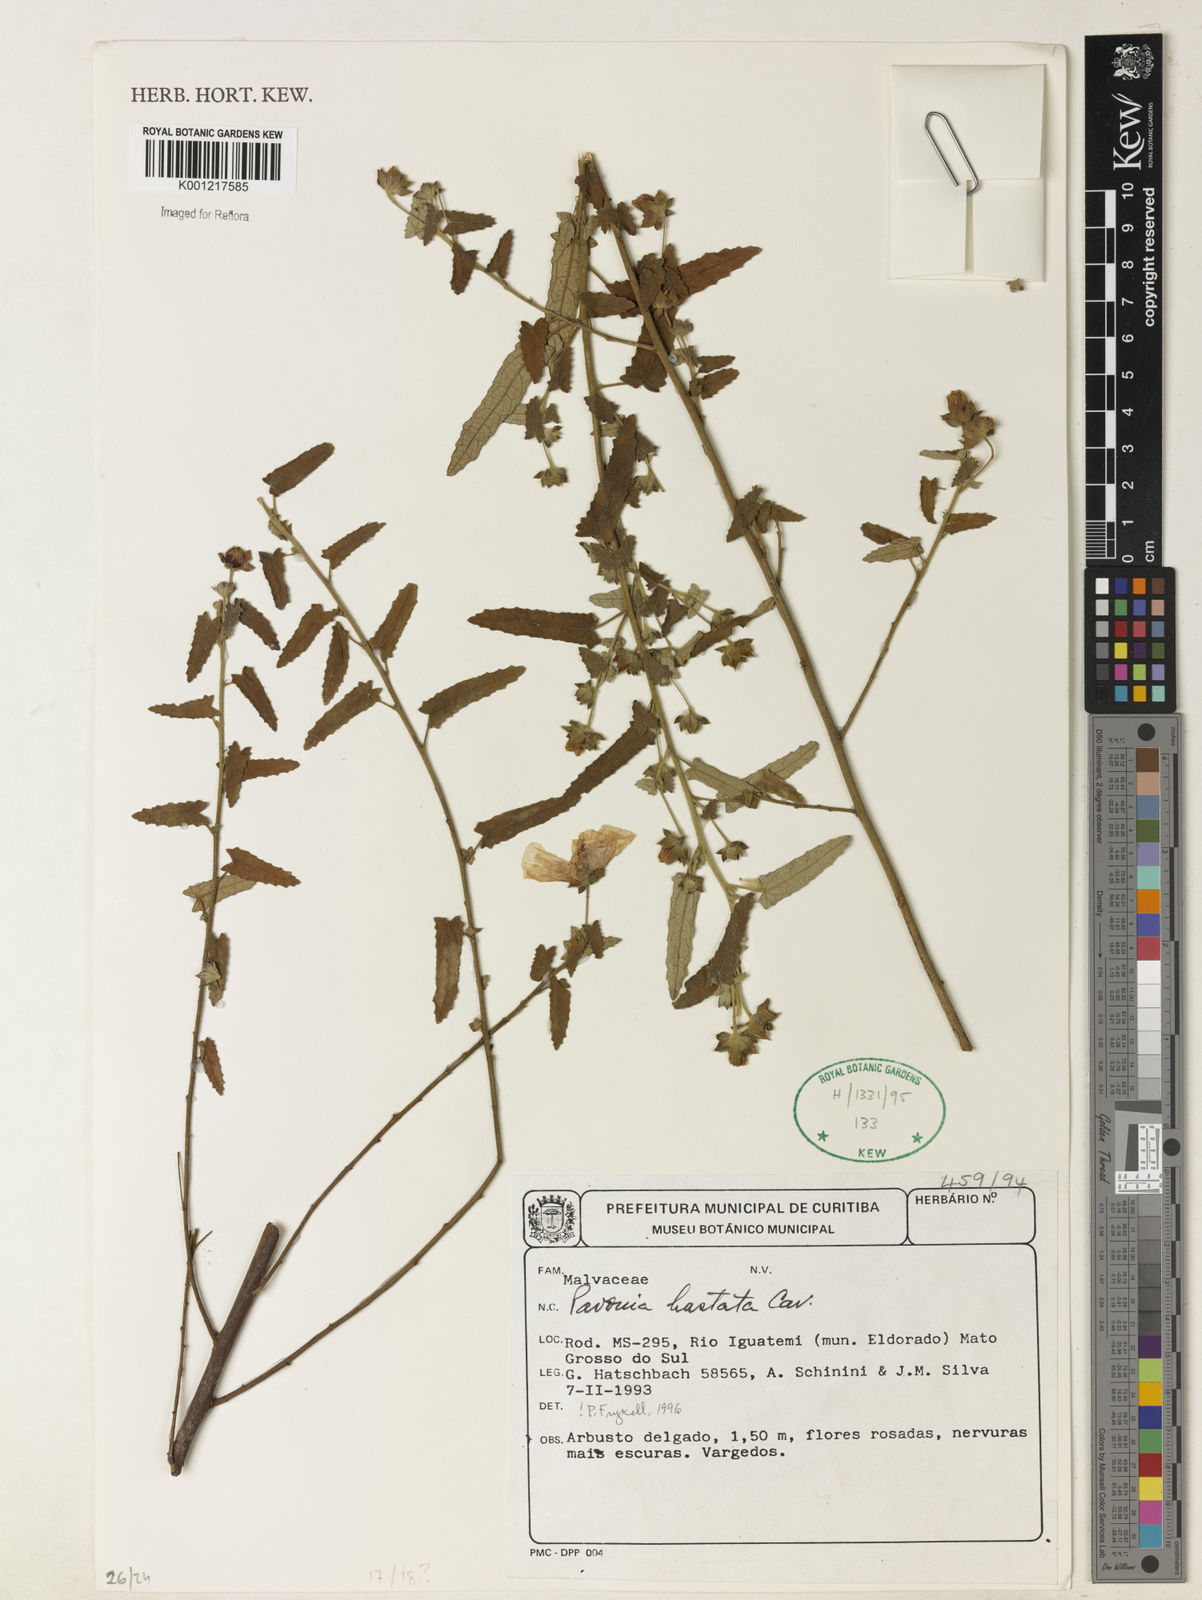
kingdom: Plantae
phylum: Tracheophyta
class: Magnoliopsida
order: Malvales
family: Malvaceae
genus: Pavonia
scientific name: Pavonia hastata
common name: Spearleaf swampmallow
